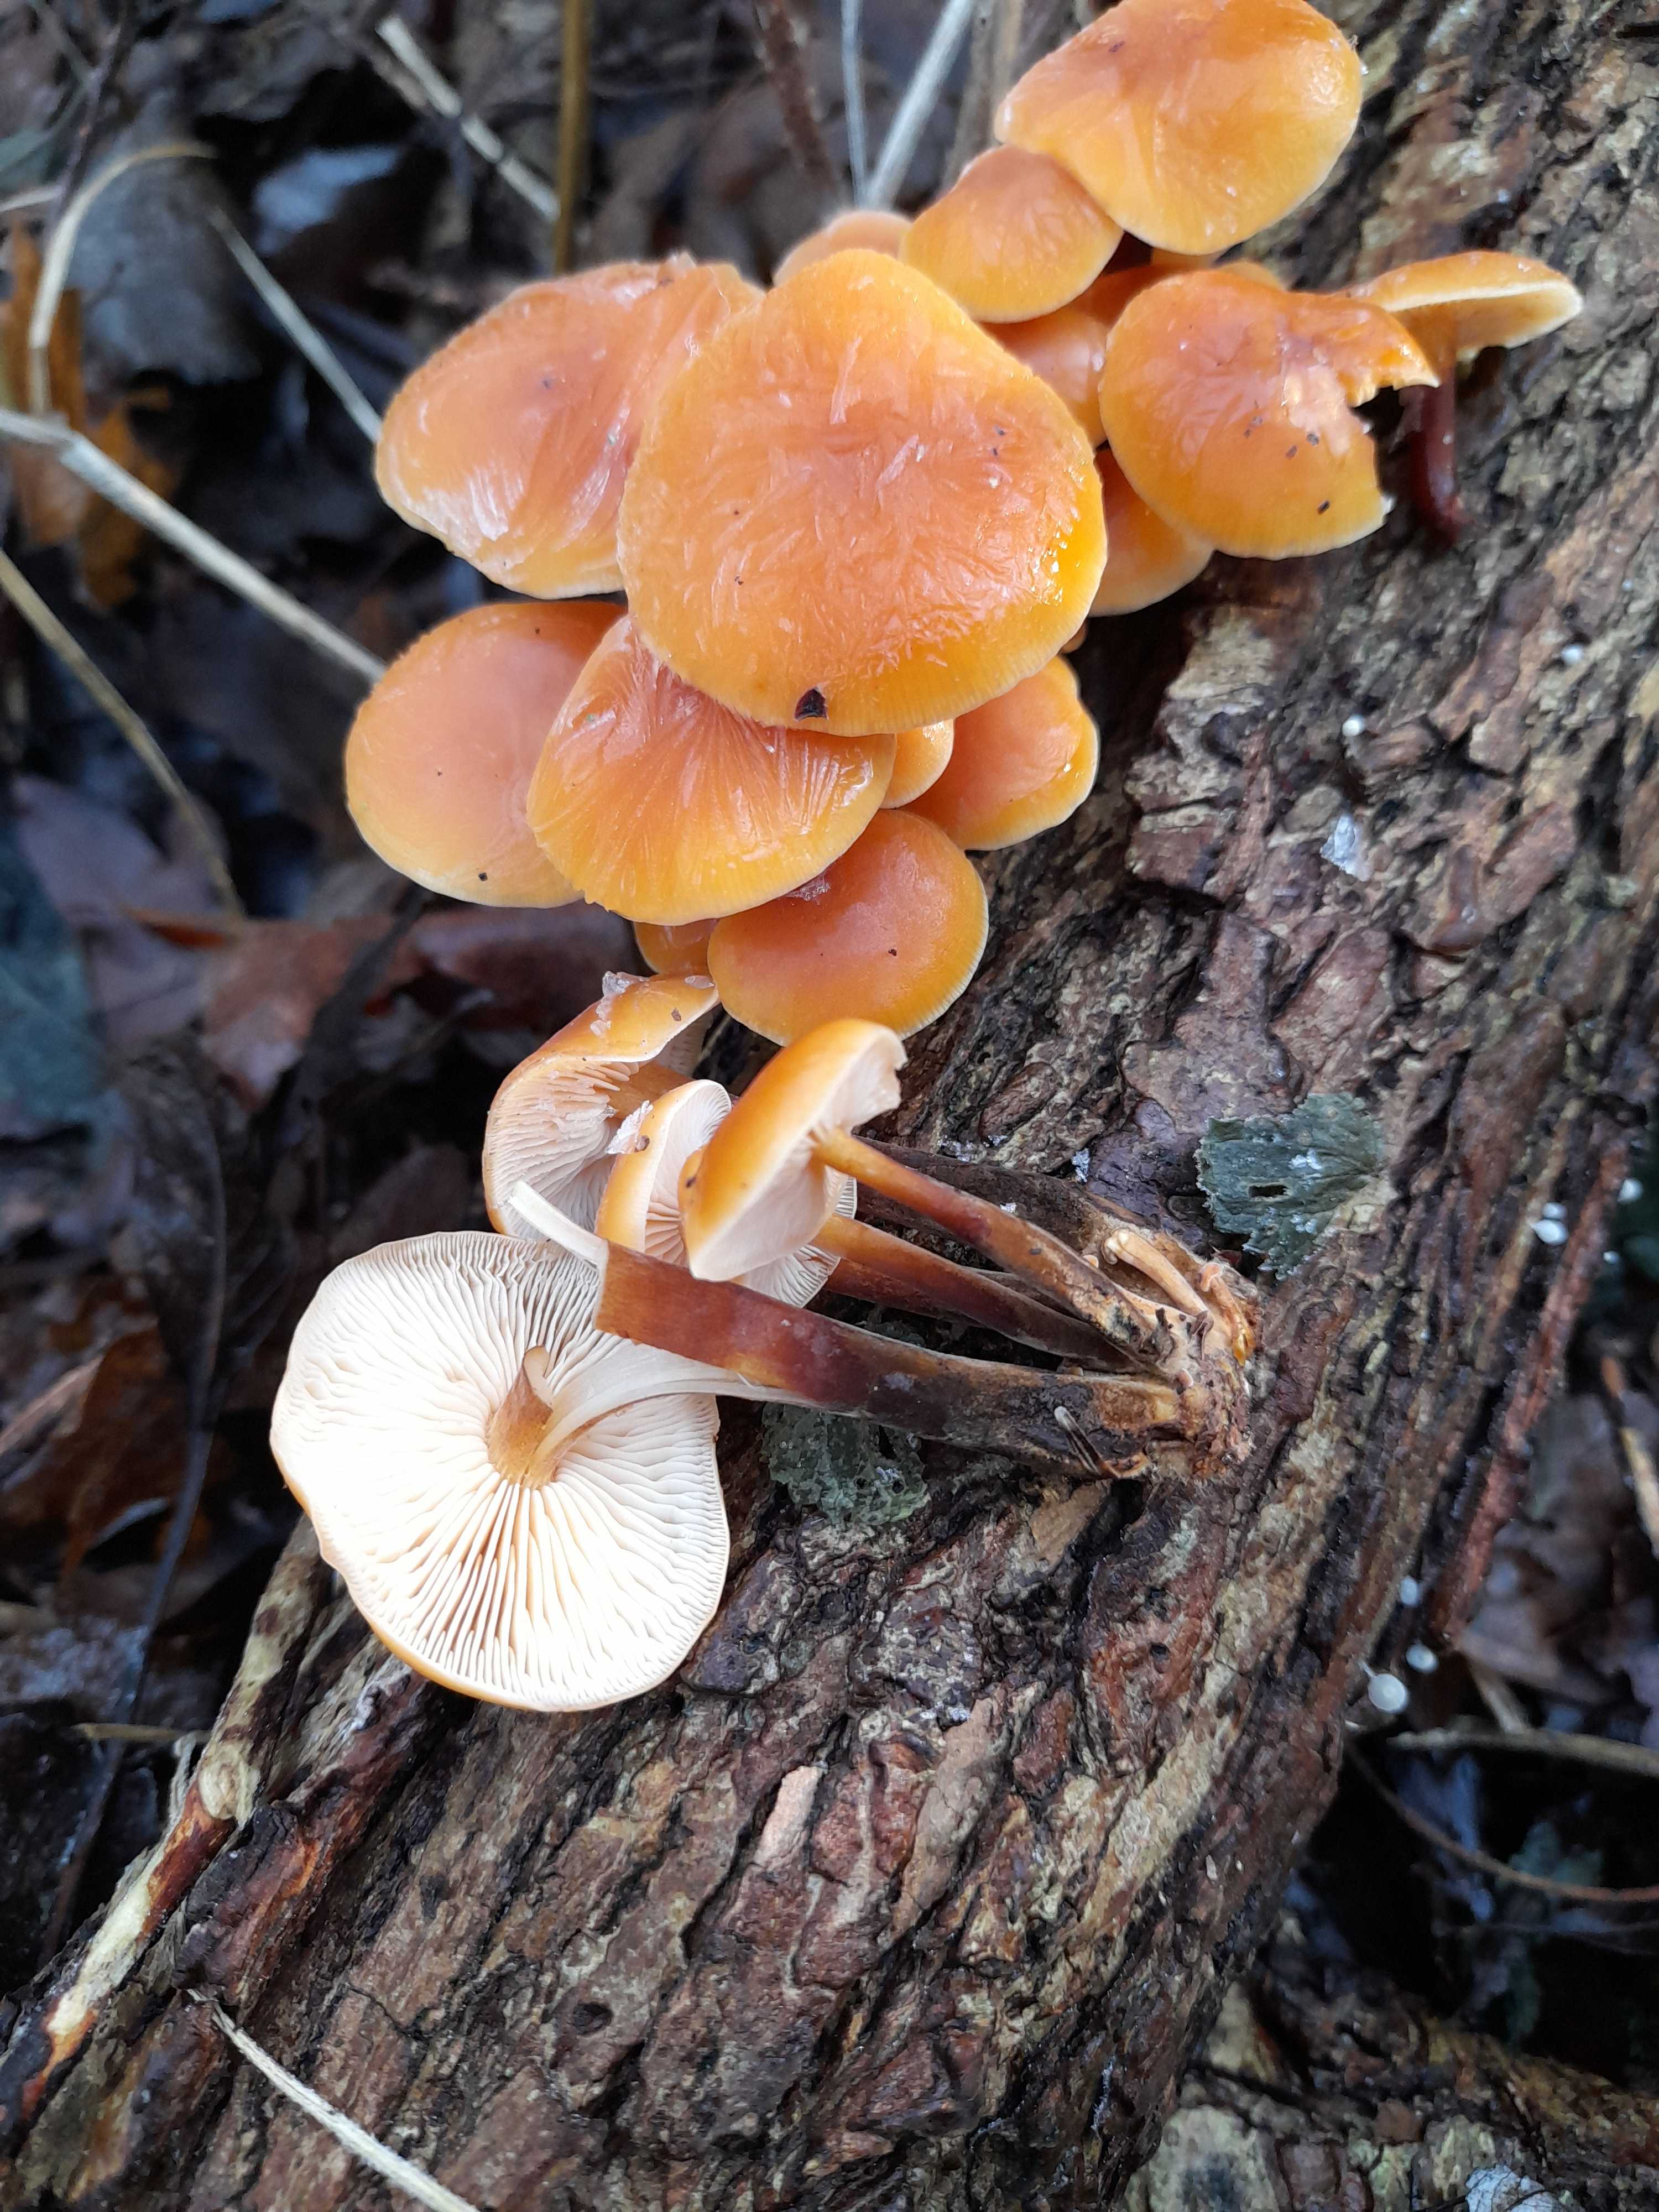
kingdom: Fungi
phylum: Basidiomycota
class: Agaricomycetes
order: Agaricales
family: Physalacriaceae
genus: Flammulina
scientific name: Flammulina velutipes
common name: gul fløjlsfod
